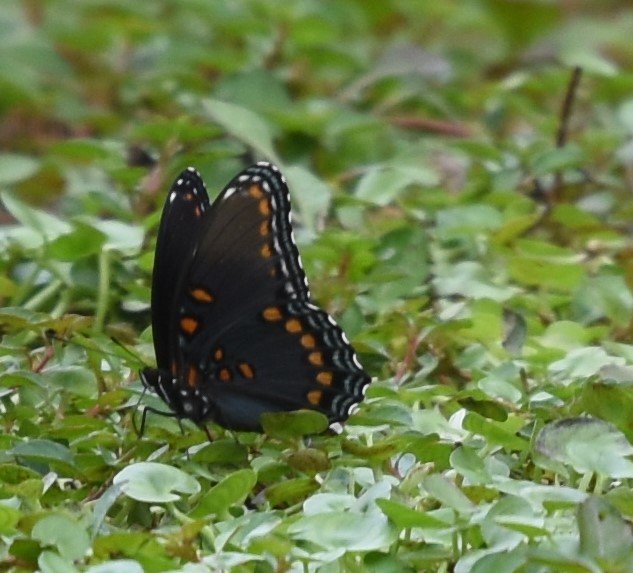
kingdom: Animalia
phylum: Arthropoda
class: Insecta
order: Lepidoptera
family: Nymphalidae
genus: Limenitis
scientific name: Limenitis astyanax
